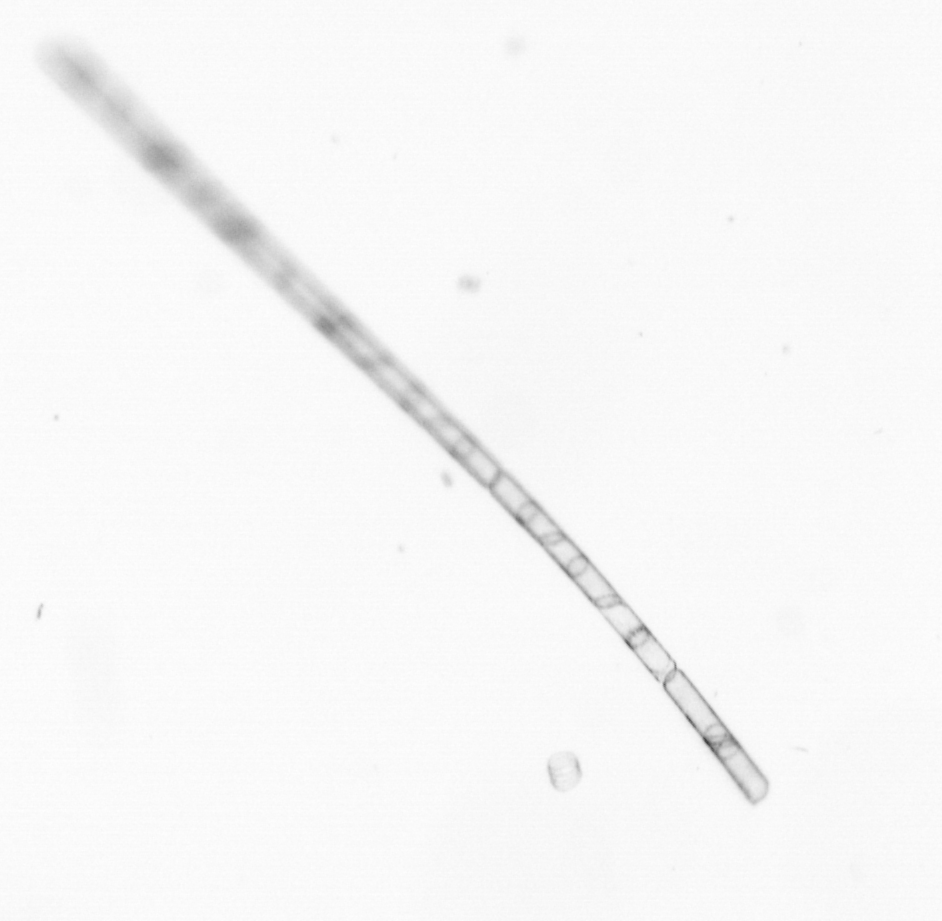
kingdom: Chromista
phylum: Ochrophyta
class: Bacillariophyceae
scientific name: Bacillariophyceae
